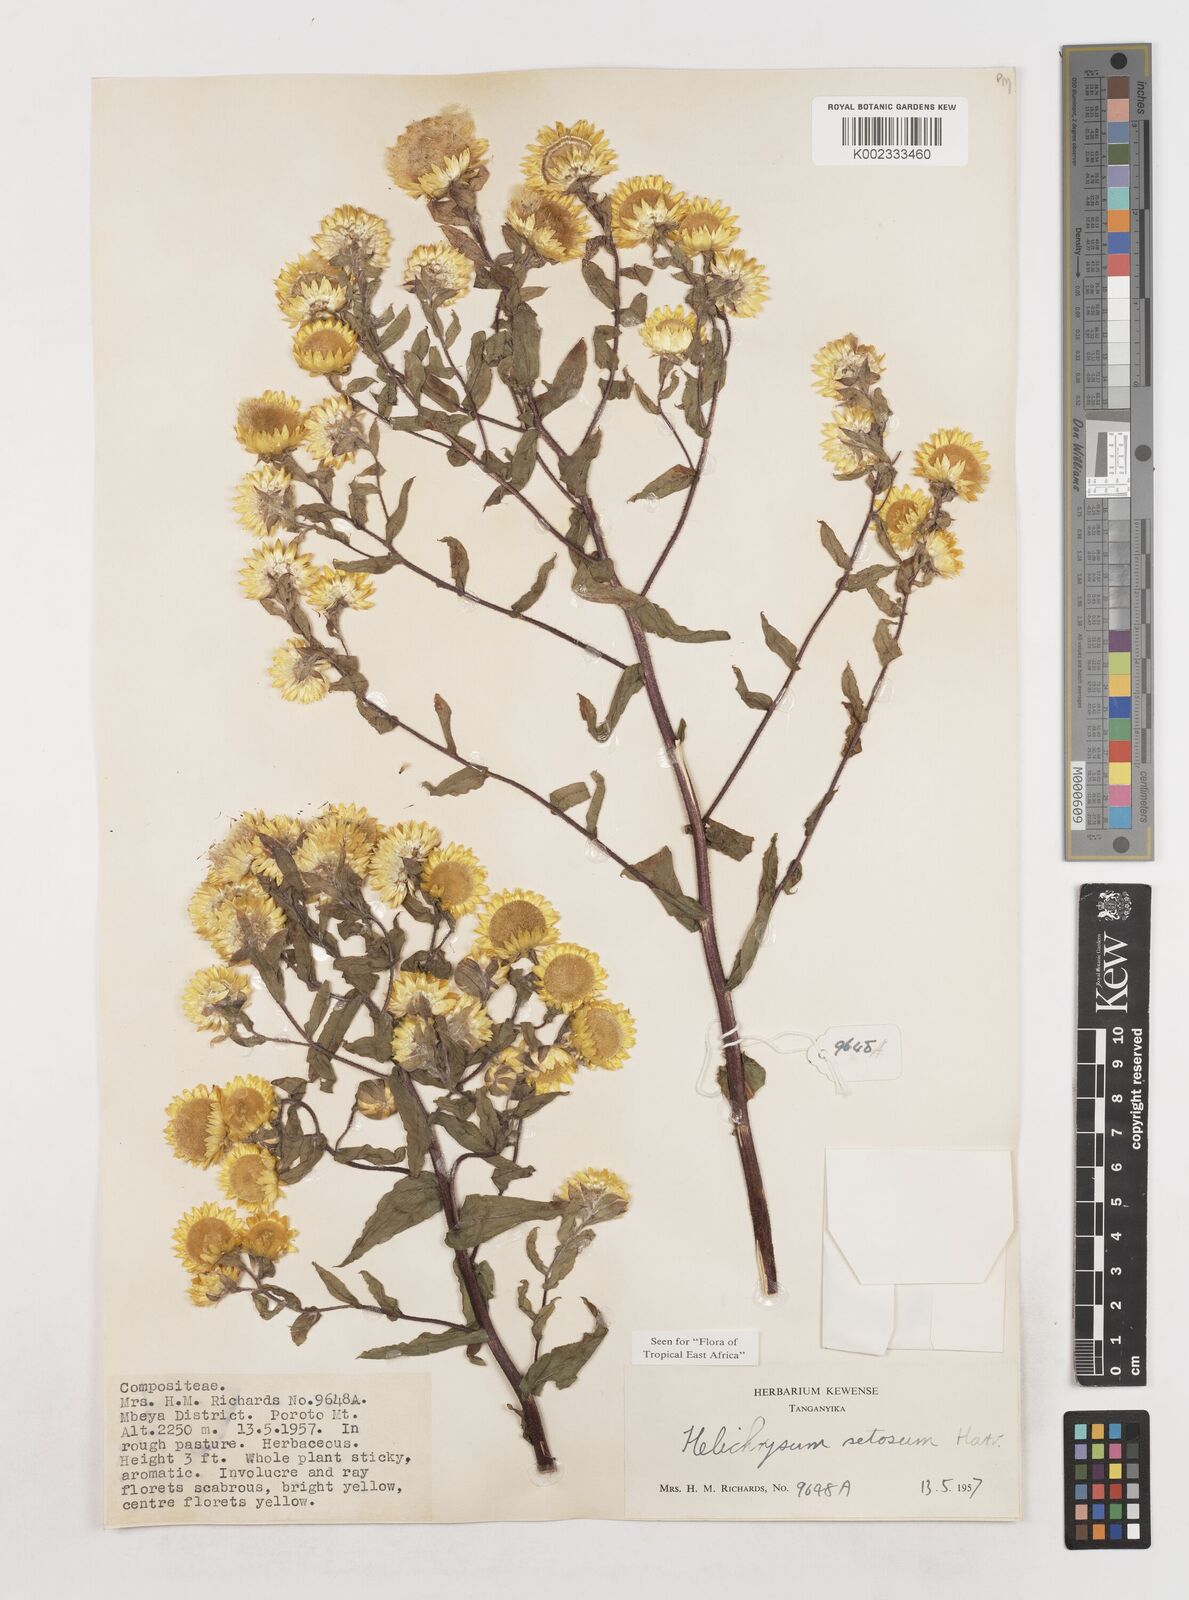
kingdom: Plantae
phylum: Tracheophyta
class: Magnoliopsida
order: Asterales
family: Asteraceae
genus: Helichrysum
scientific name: Helichrysum setosum
